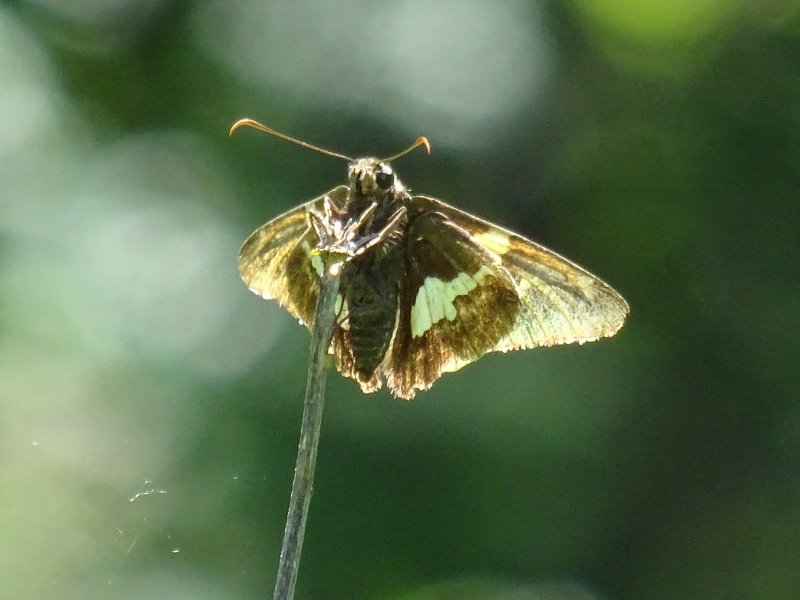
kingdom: Animalia
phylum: Arthropoda
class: Insecta
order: Lepidoptera
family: Hesperiidae
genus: Epargyreus
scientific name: Epargyreus clarus
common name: Silver-spotted Skipper
